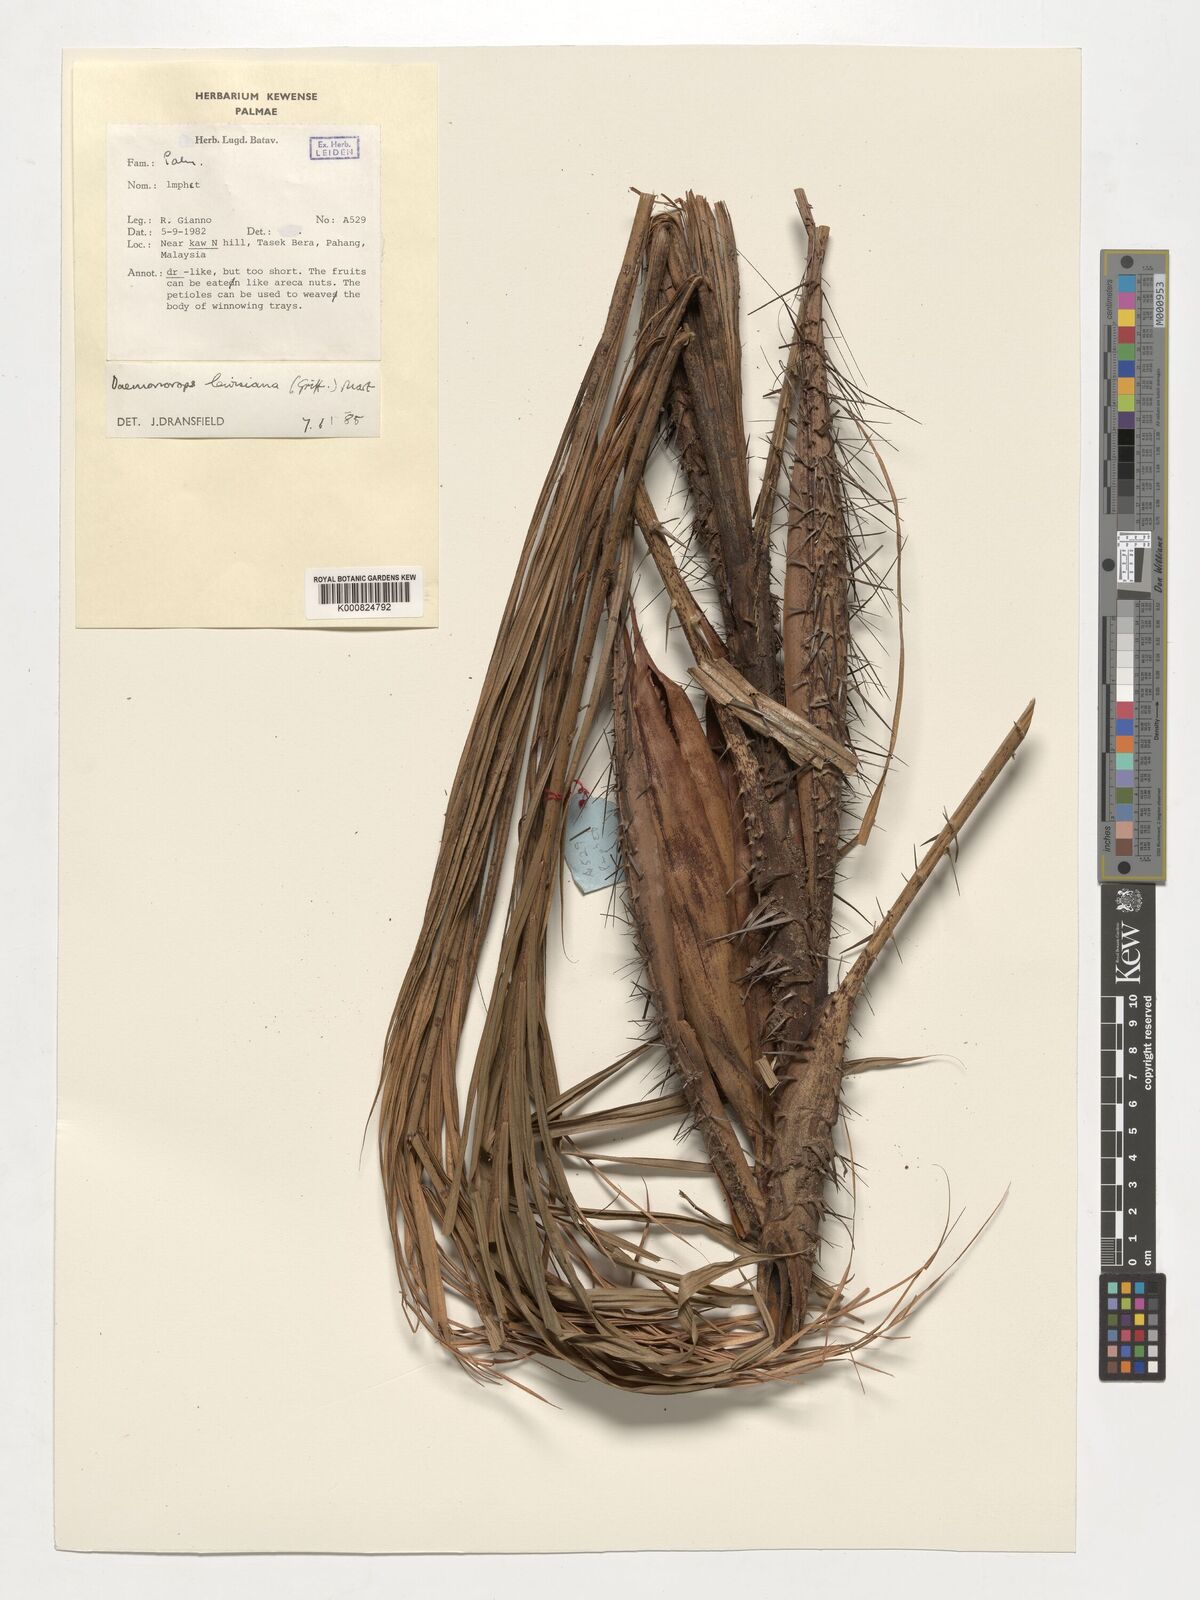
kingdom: Plantae
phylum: Tracheophyta
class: Liliopsida
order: Arecales
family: Arecaceae
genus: Calamus
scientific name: Calamus melanochaetes
